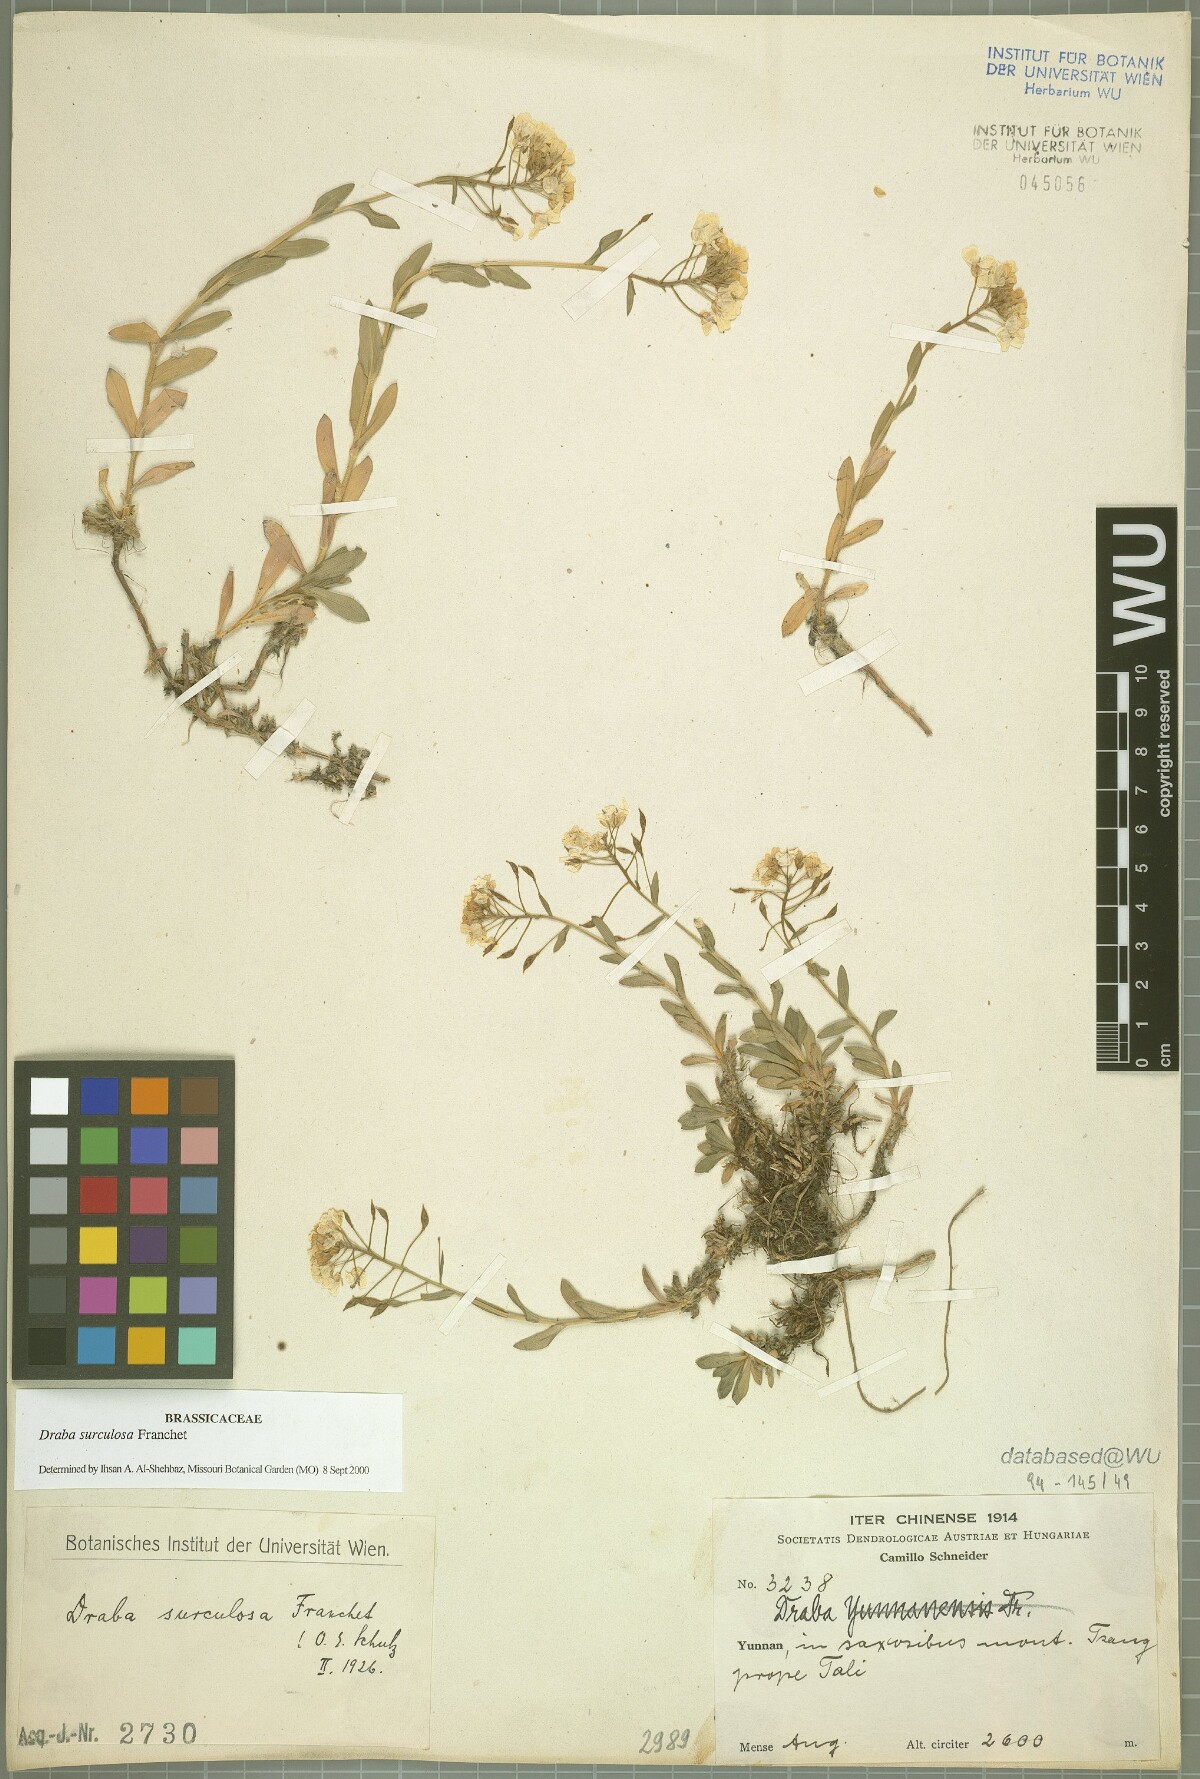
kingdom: Plantae
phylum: Tracheophyta
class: Magnoliopsida
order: Brassicales
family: Brassicaceae
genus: Draba
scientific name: Draba surculosa
